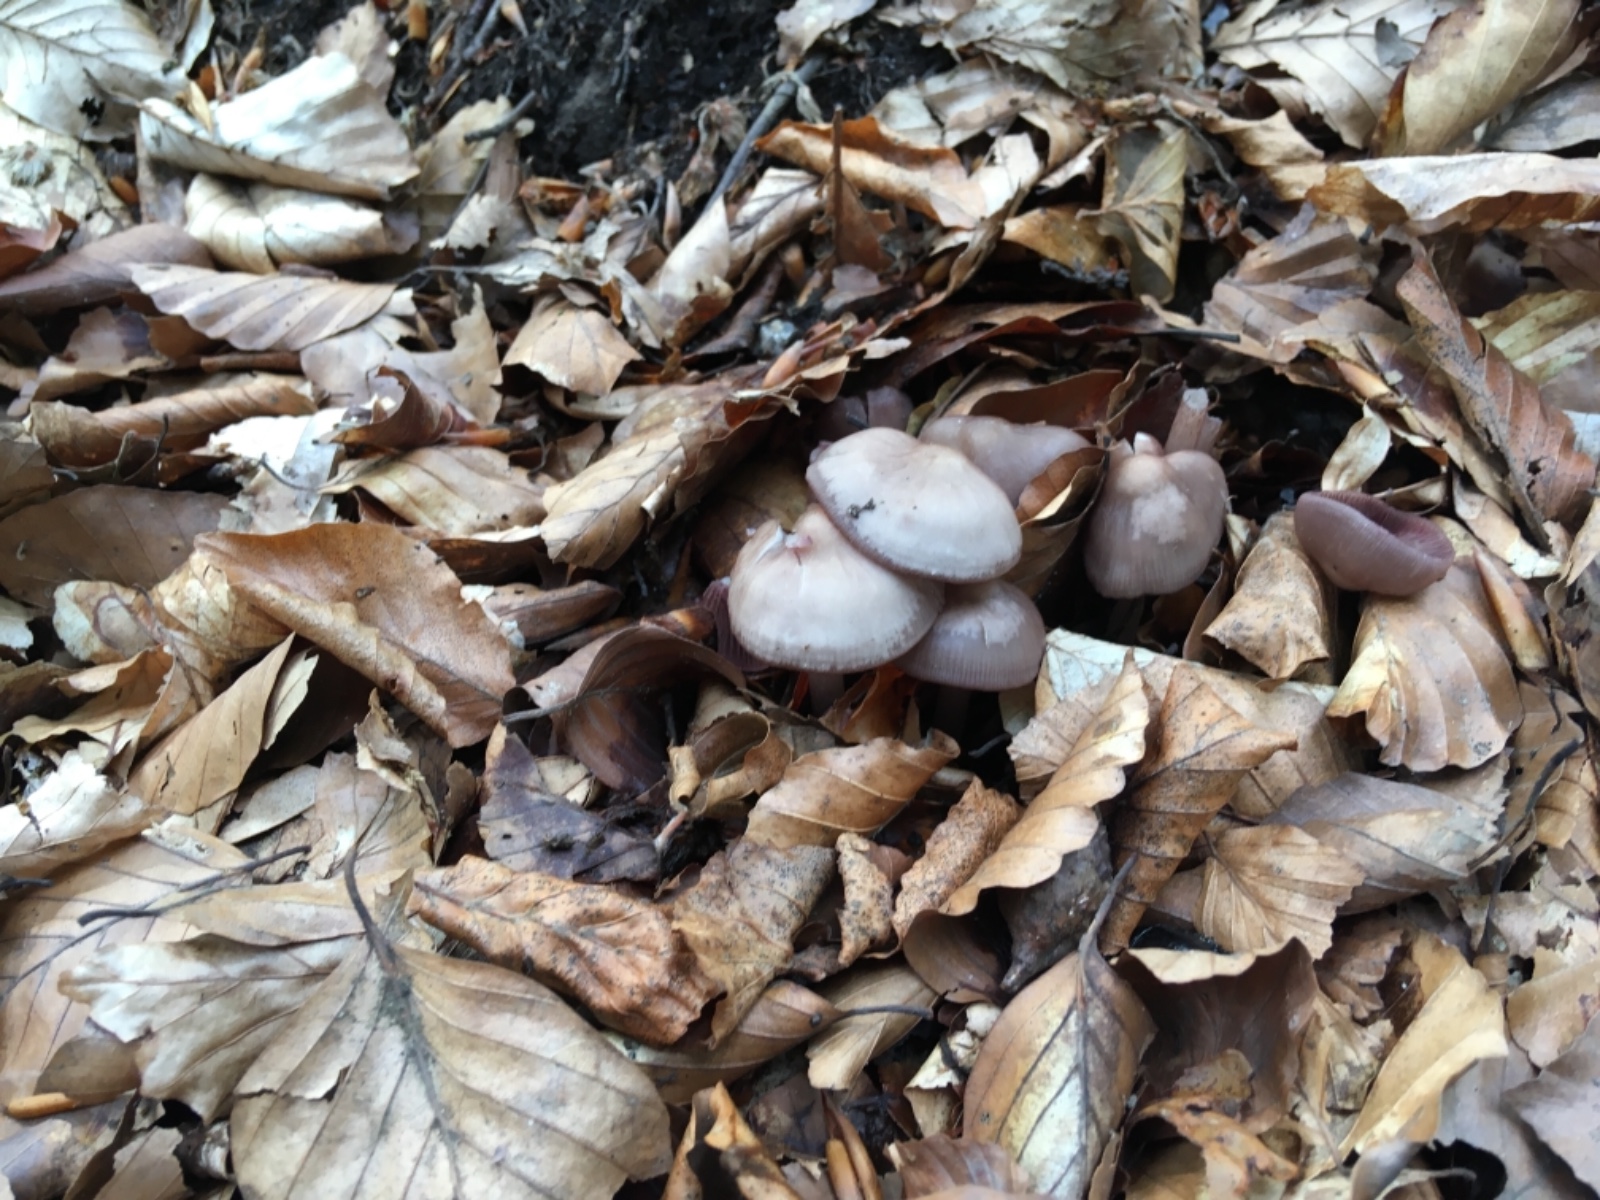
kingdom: Fungi
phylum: Basidiomycota
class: Agaricomycetes
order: Agaricales
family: Mycenaceae
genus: Mycena
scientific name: Mycena pelianthina
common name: mørkbladet huesvamp
